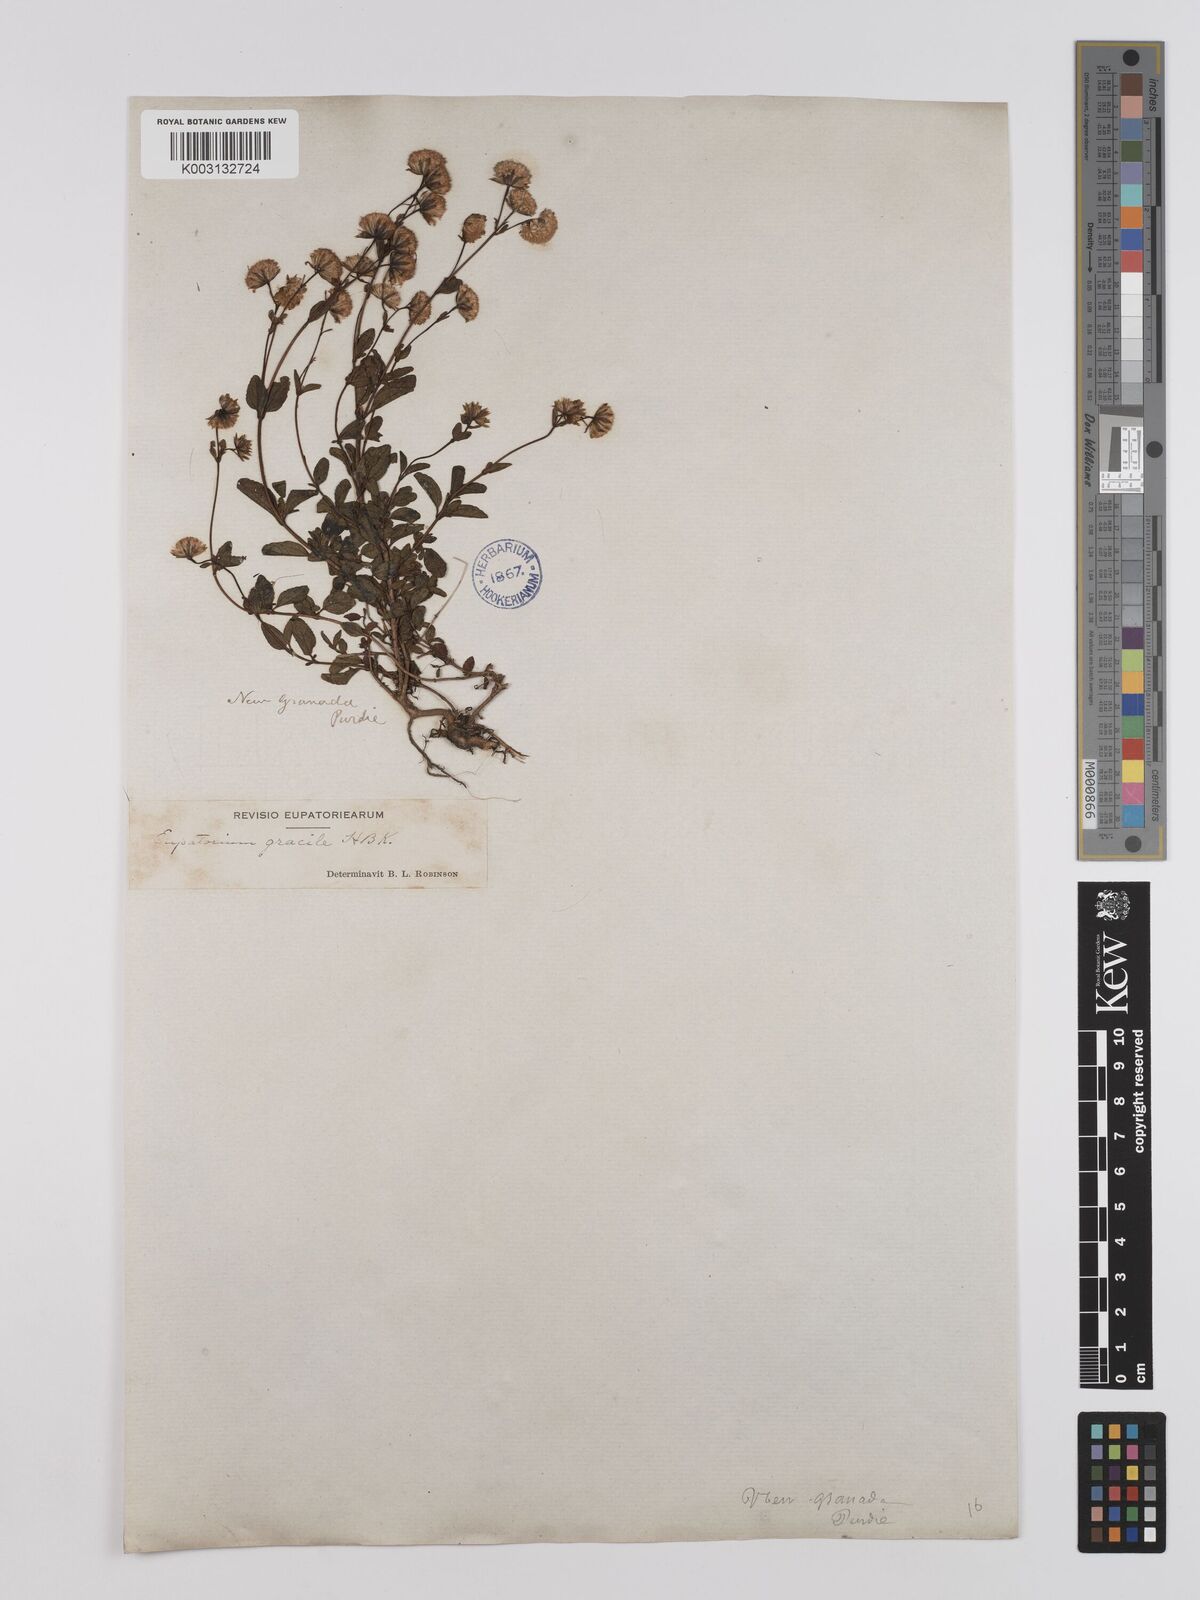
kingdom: Plantae
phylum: Tracheophyta
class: Magnoliopsida
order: Asterales
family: Asteraceae
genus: Ageratina
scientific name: Ageratina gracilis
